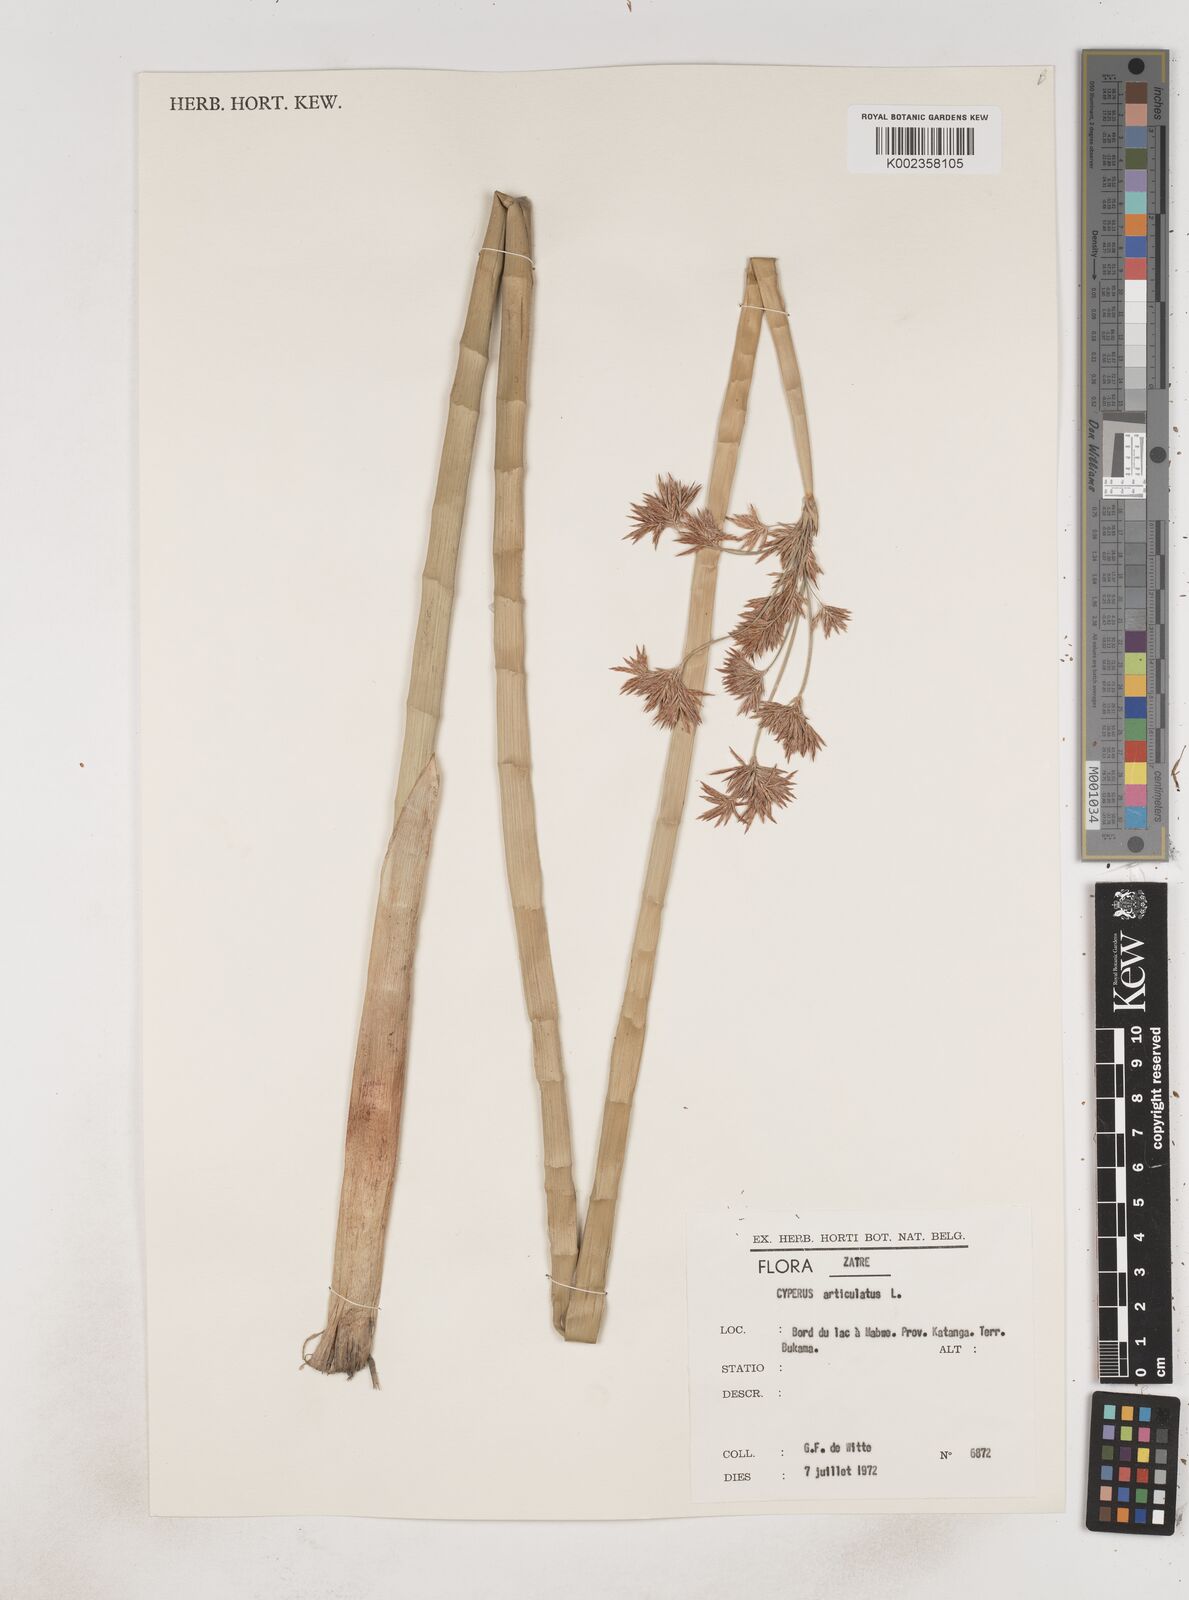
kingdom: Plantae
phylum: Tracheophyta
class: Liliopsida
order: Poales
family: Cyperaceae
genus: Cyperus
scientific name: Cyperus articulatus
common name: Jointed flatsedge
